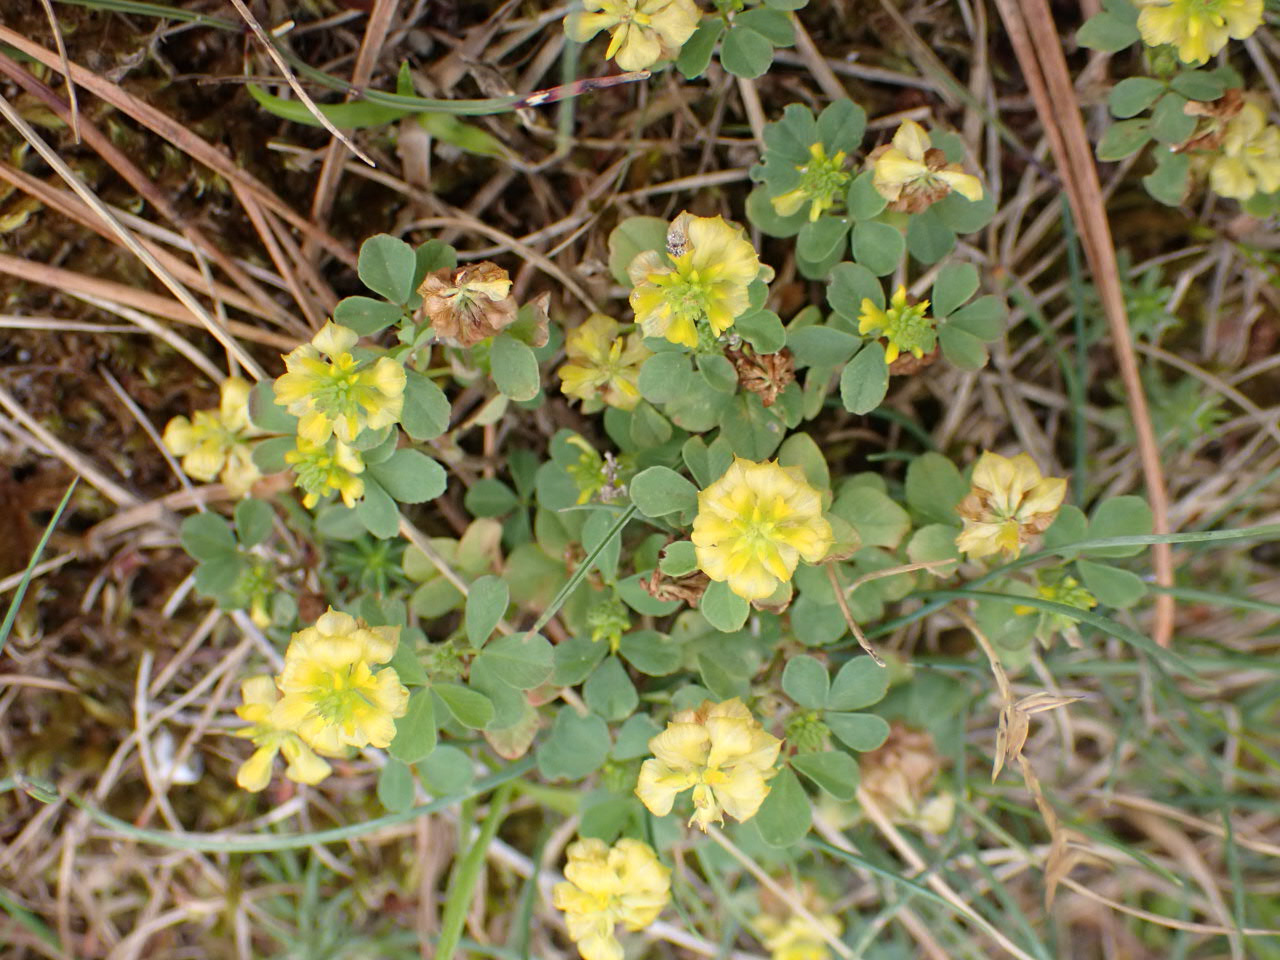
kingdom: Plantae
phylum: Tracheophyta
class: Magnoliopsida
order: Fabales
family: Fabaceae
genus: Trifolium
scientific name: Trifolium campestre
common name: Gul kløver
